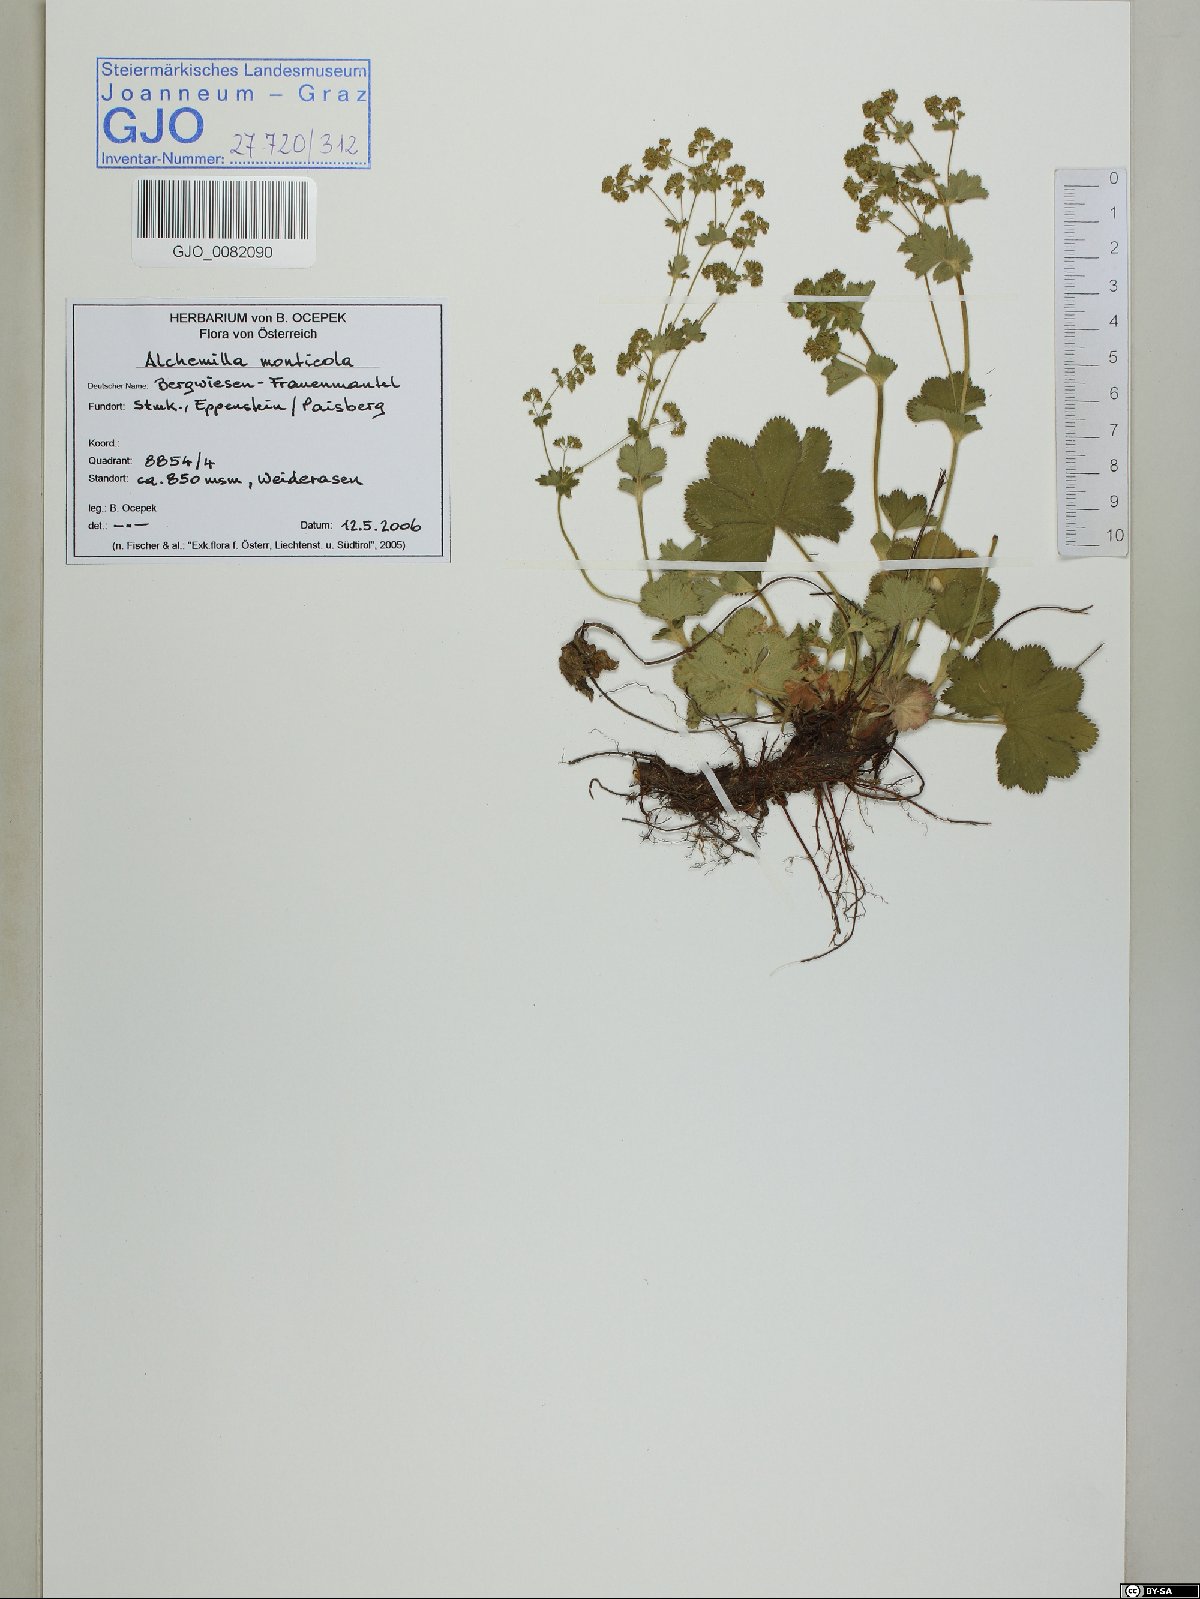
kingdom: Plantae
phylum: Tracheophyta
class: Magnoliopsida
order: Rosales
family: Rosaceae
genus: Alchemilla
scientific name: Alchemilla monticola
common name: Hairy lady's mantle
